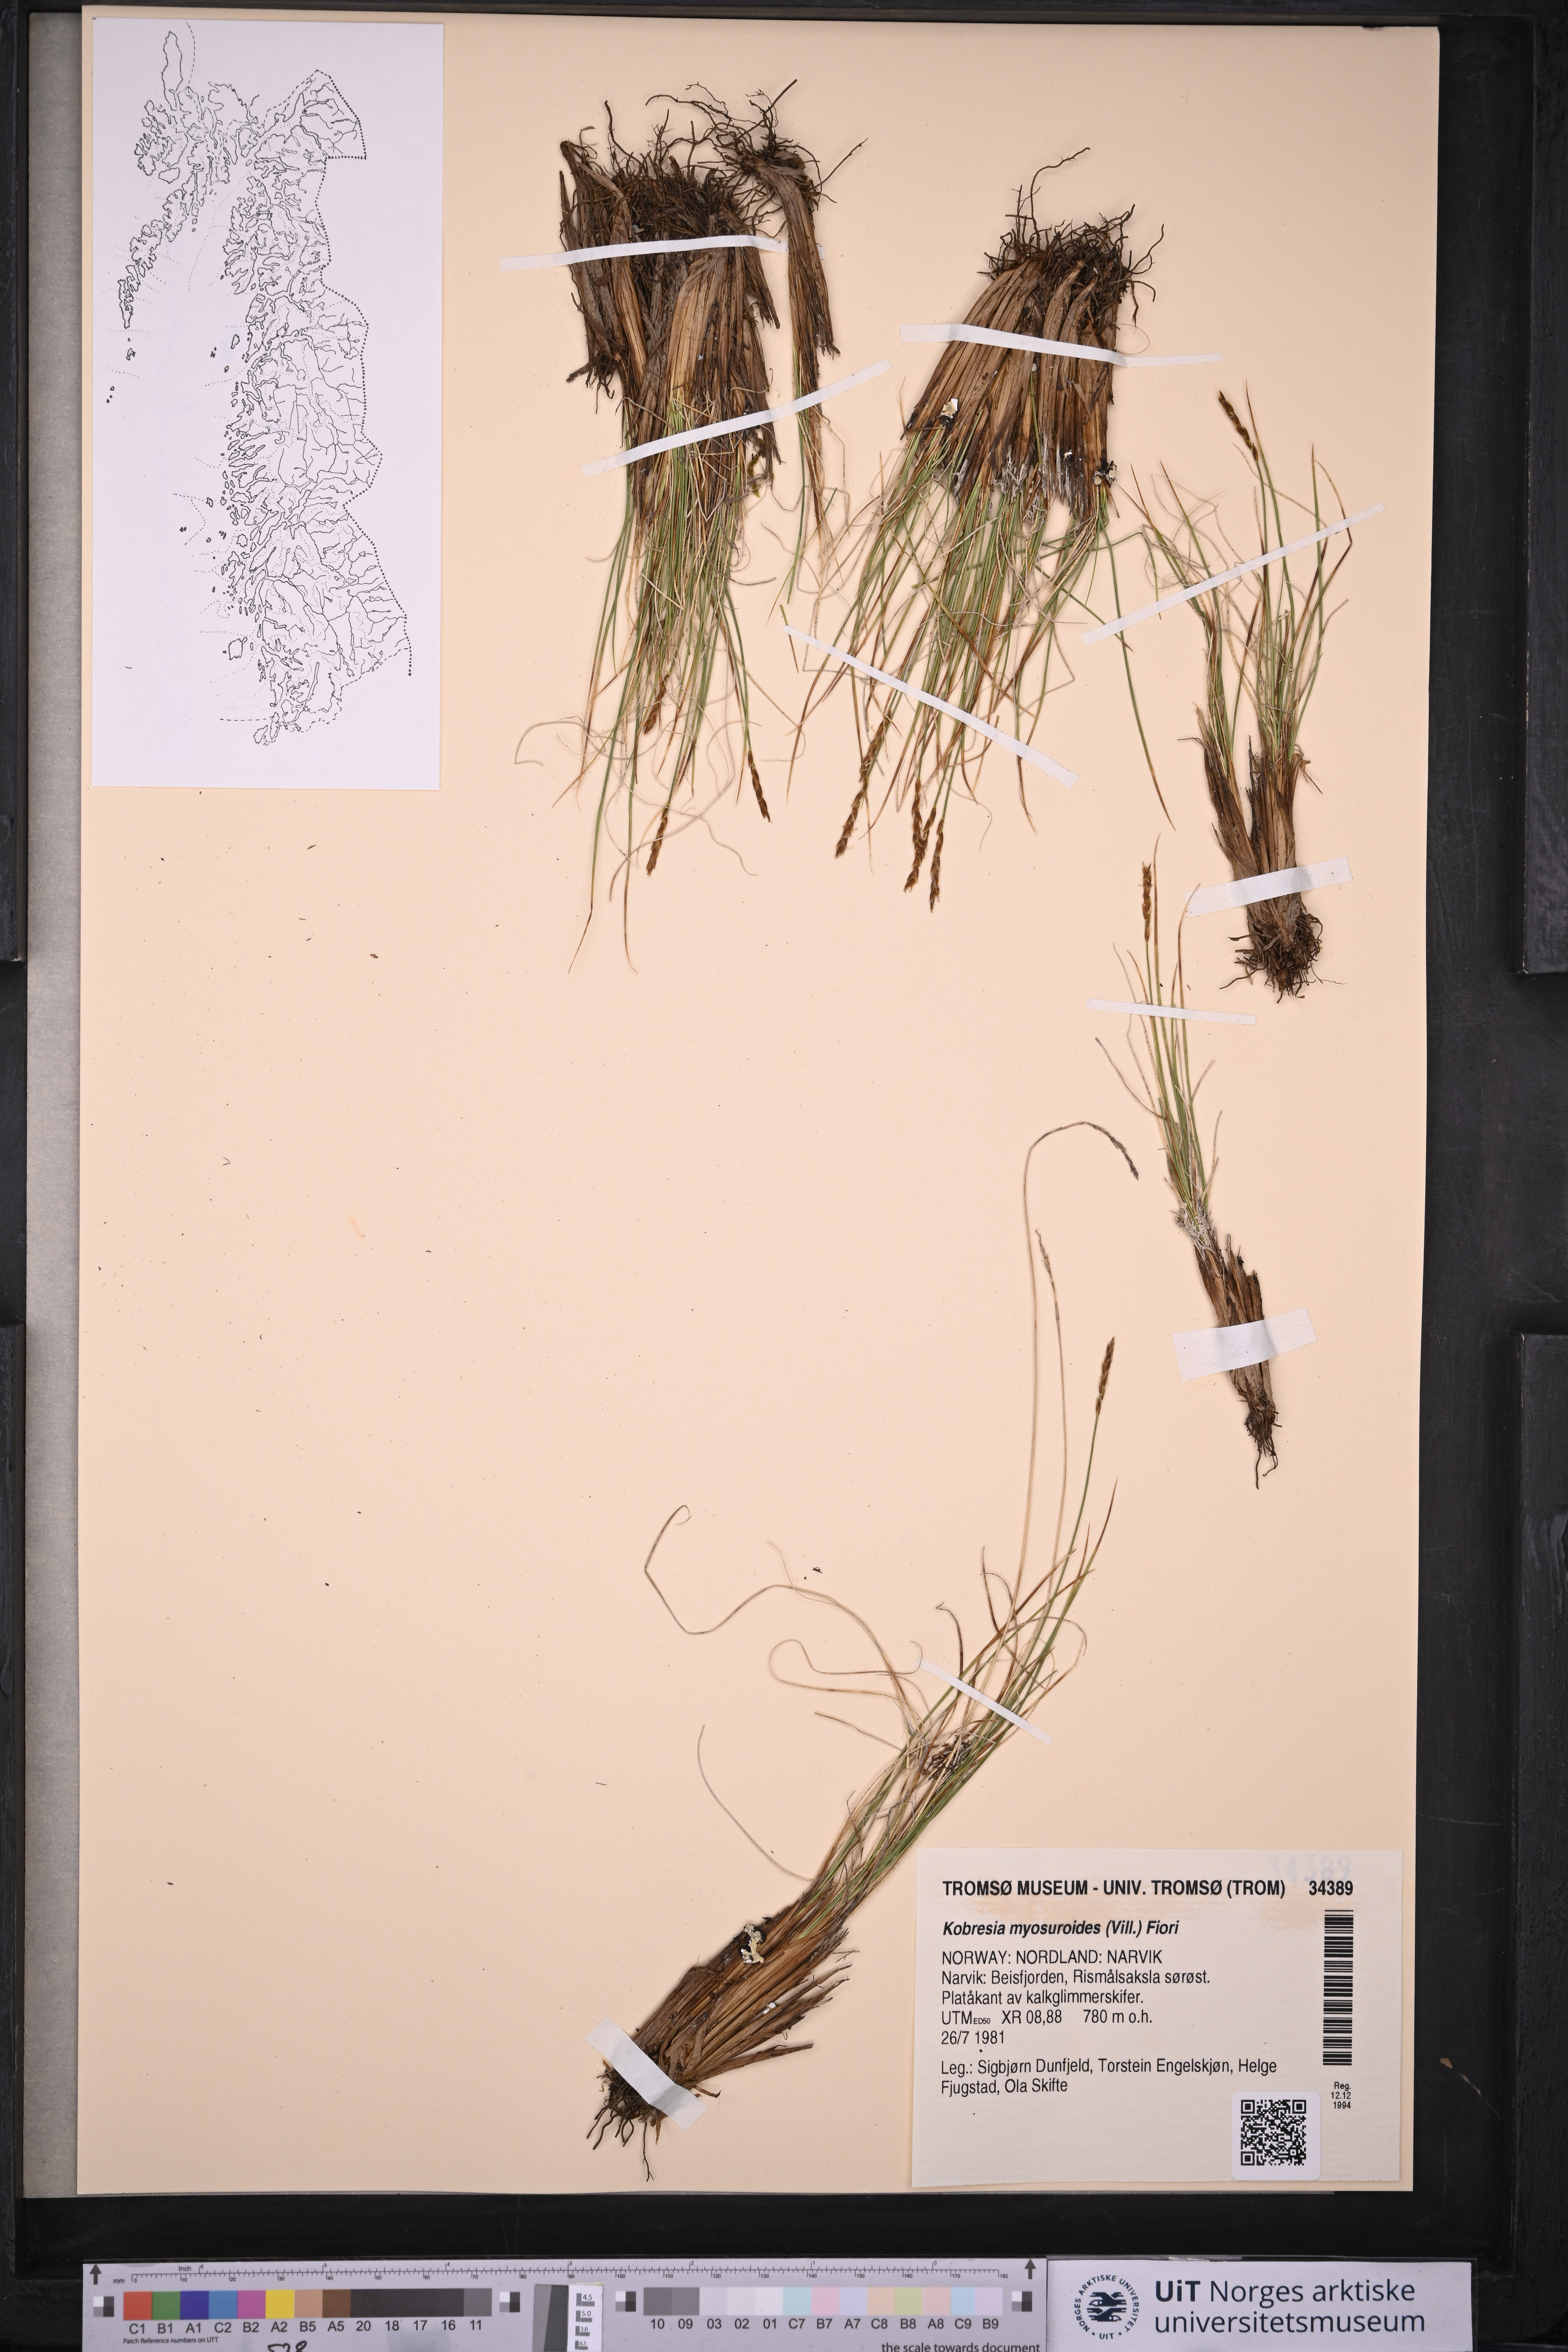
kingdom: Plantae
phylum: Tracheophyta
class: Liliopsida
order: Poales
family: Cyperaceae
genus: Carex
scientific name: Carex myosuroides
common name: Bellard's bog sedge
